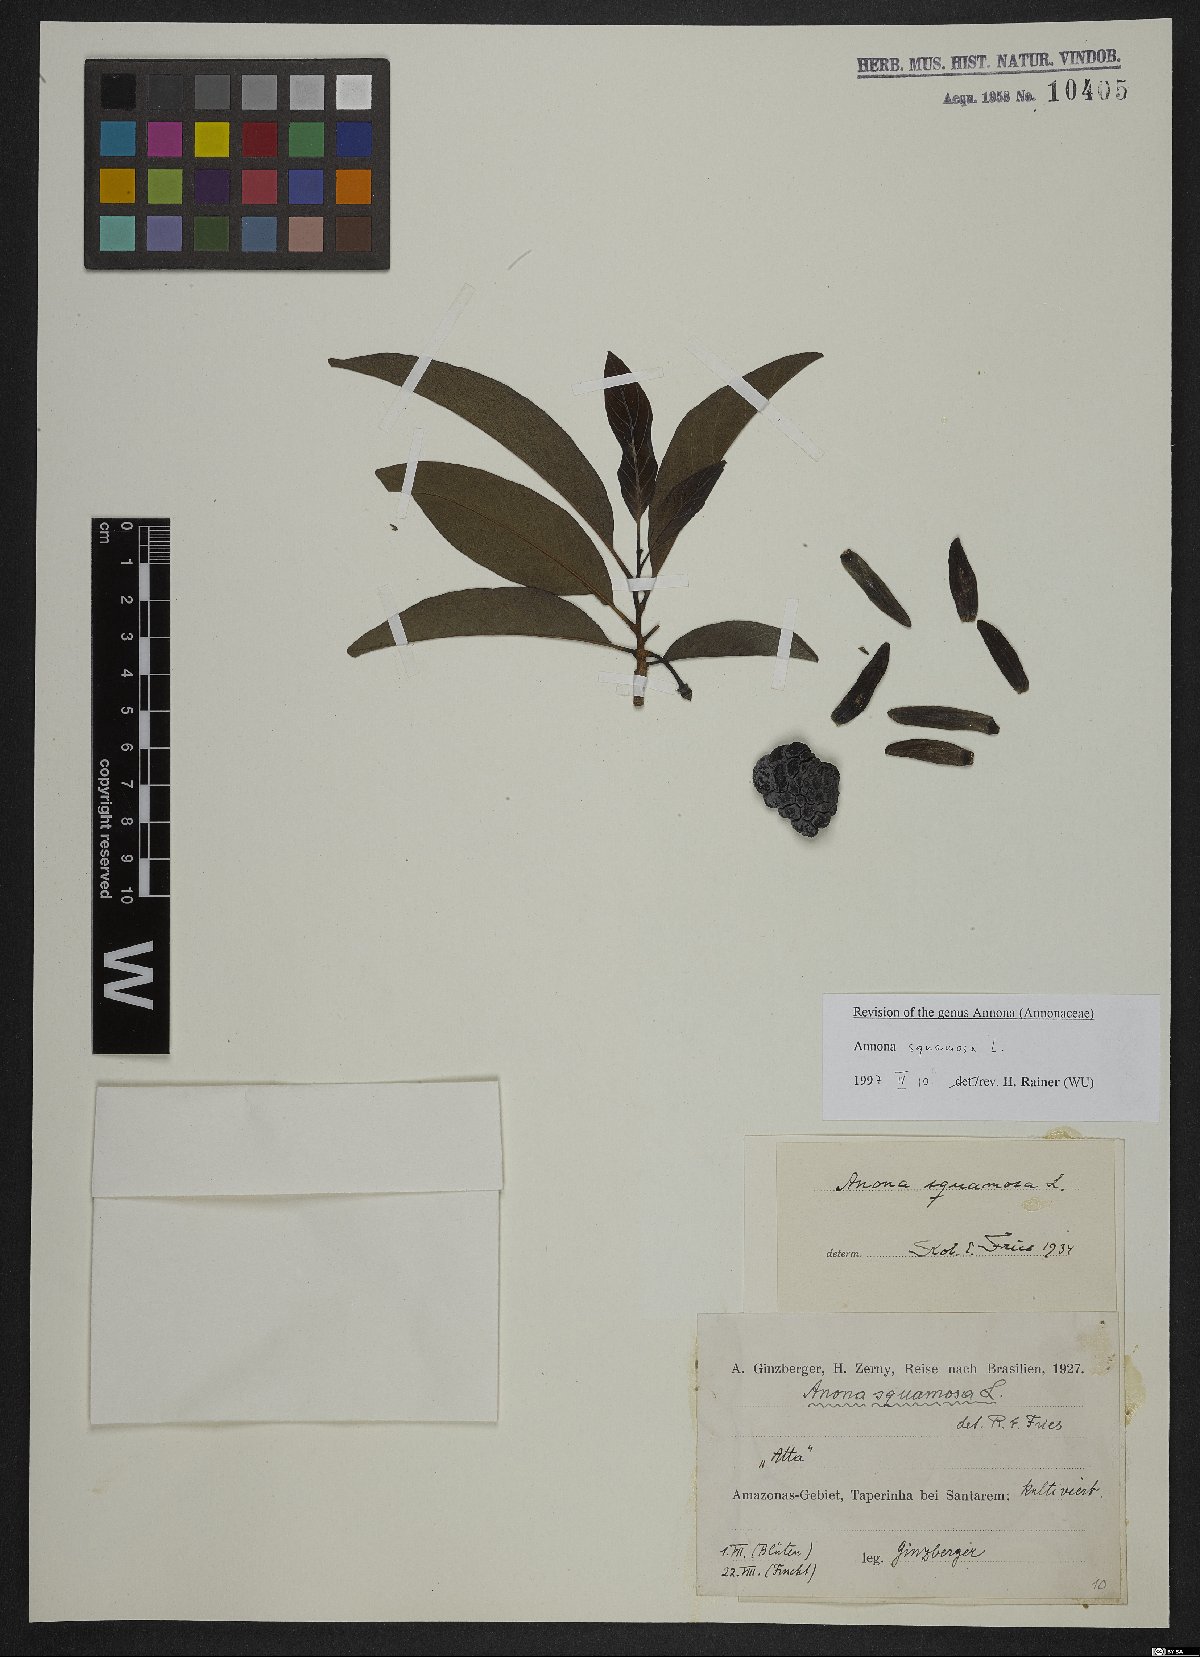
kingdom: Plantae
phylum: Tracheophyta
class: Magnoliopsida
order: Magnoliales
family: Annonaceae
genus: Annona
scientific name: Annona squamosa
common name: Custard-apple
